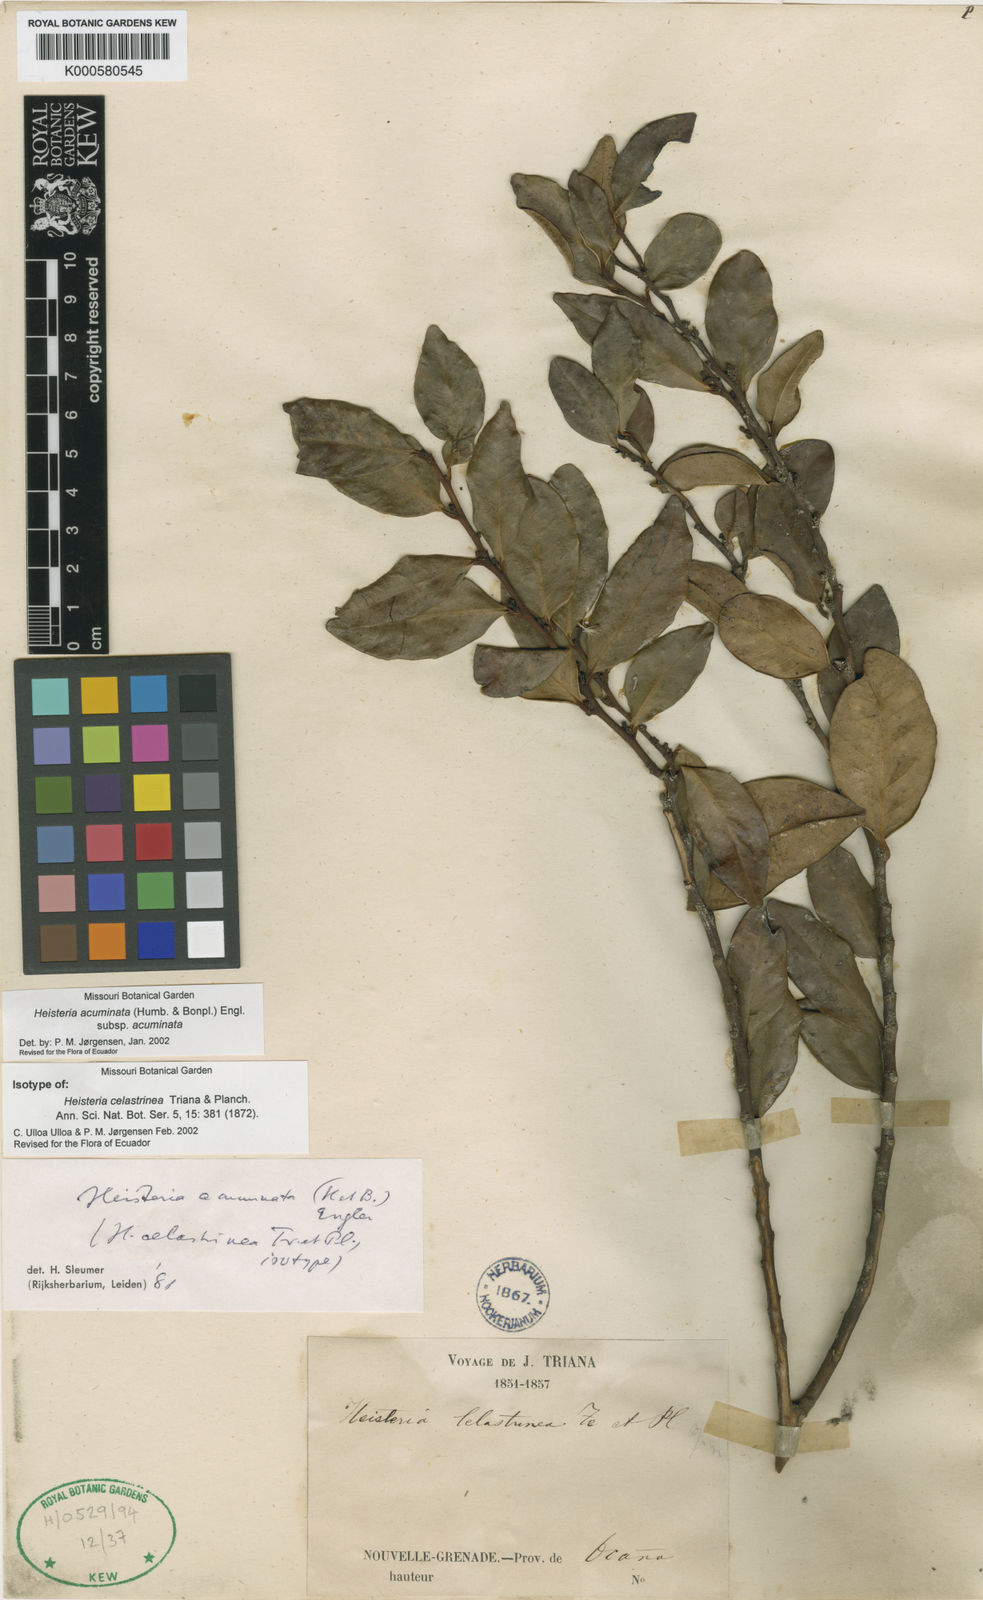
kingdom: Plantae
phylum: Tracheophyta
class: Magnoliopsida
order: Santalales
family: Erythropalaceae
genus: Heisteria
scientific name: Heisteria acuminata
